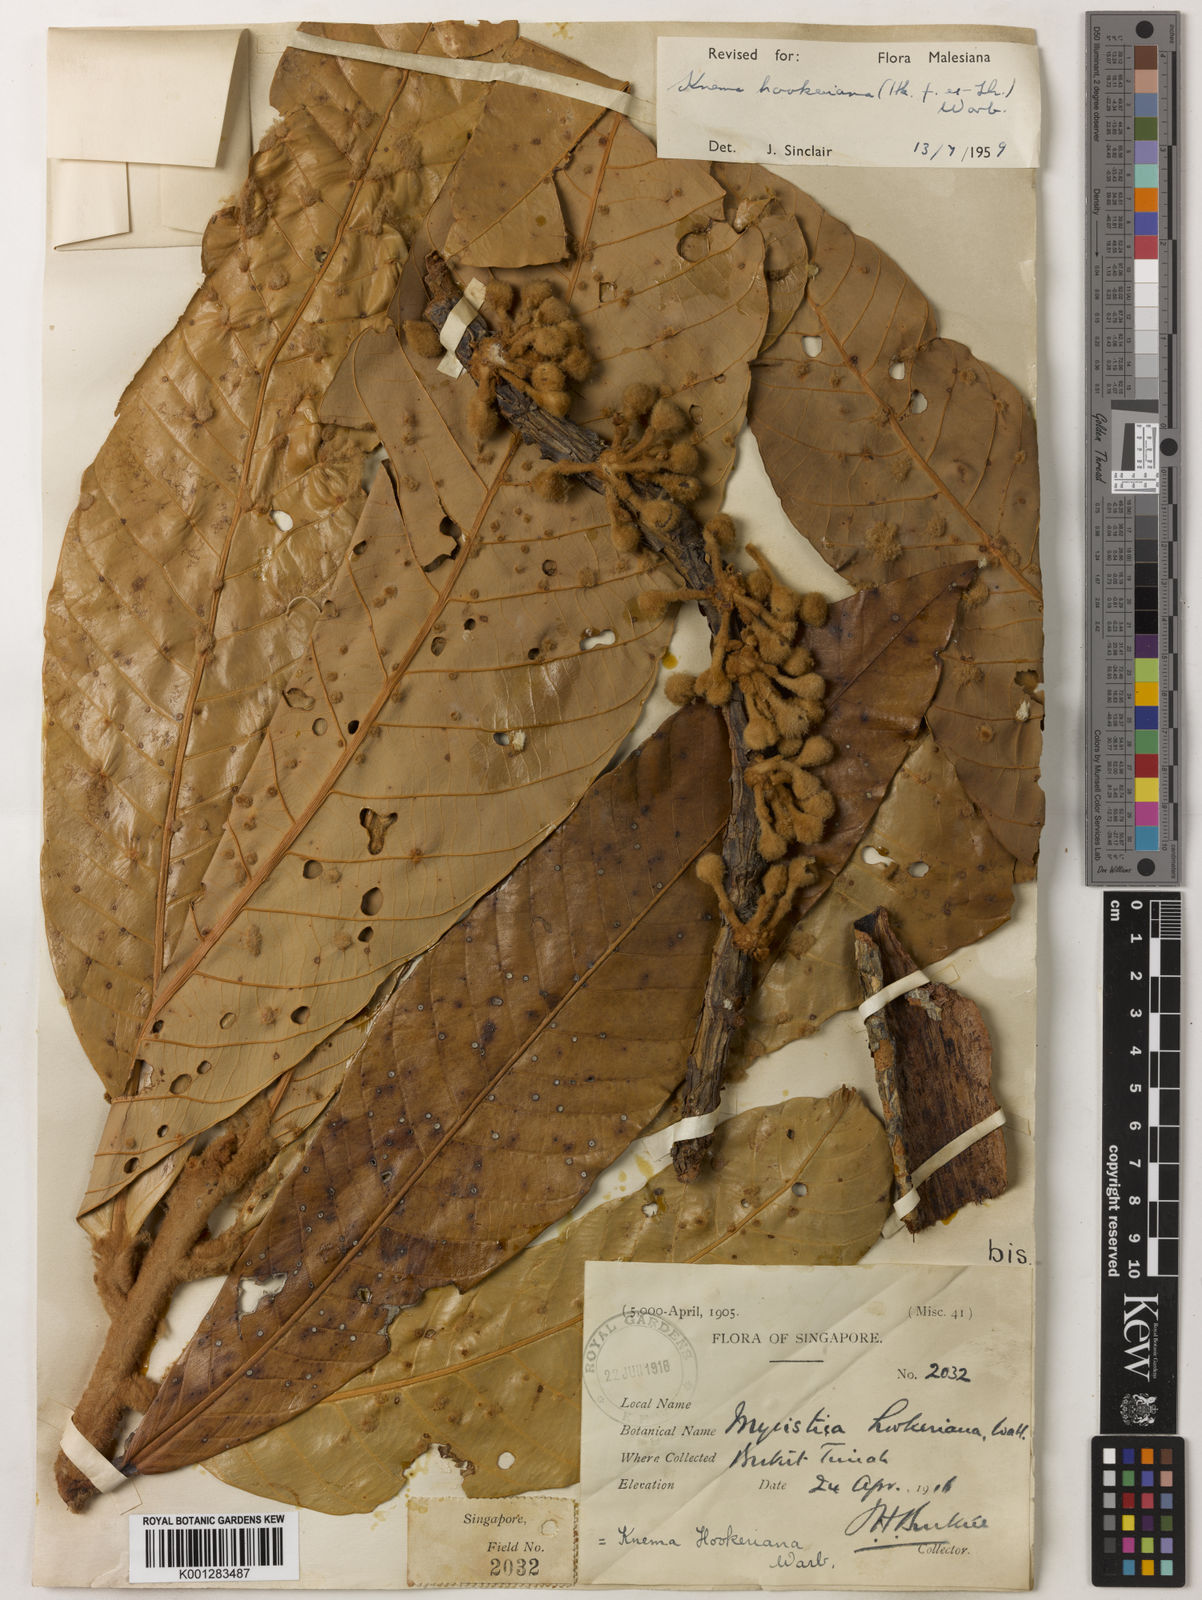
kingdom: Plantae
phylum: Tracheophyta
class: Magnoliopsida
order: Magnoliales
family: Myristicaceae
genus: Knema
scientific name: Knema hookeriana
